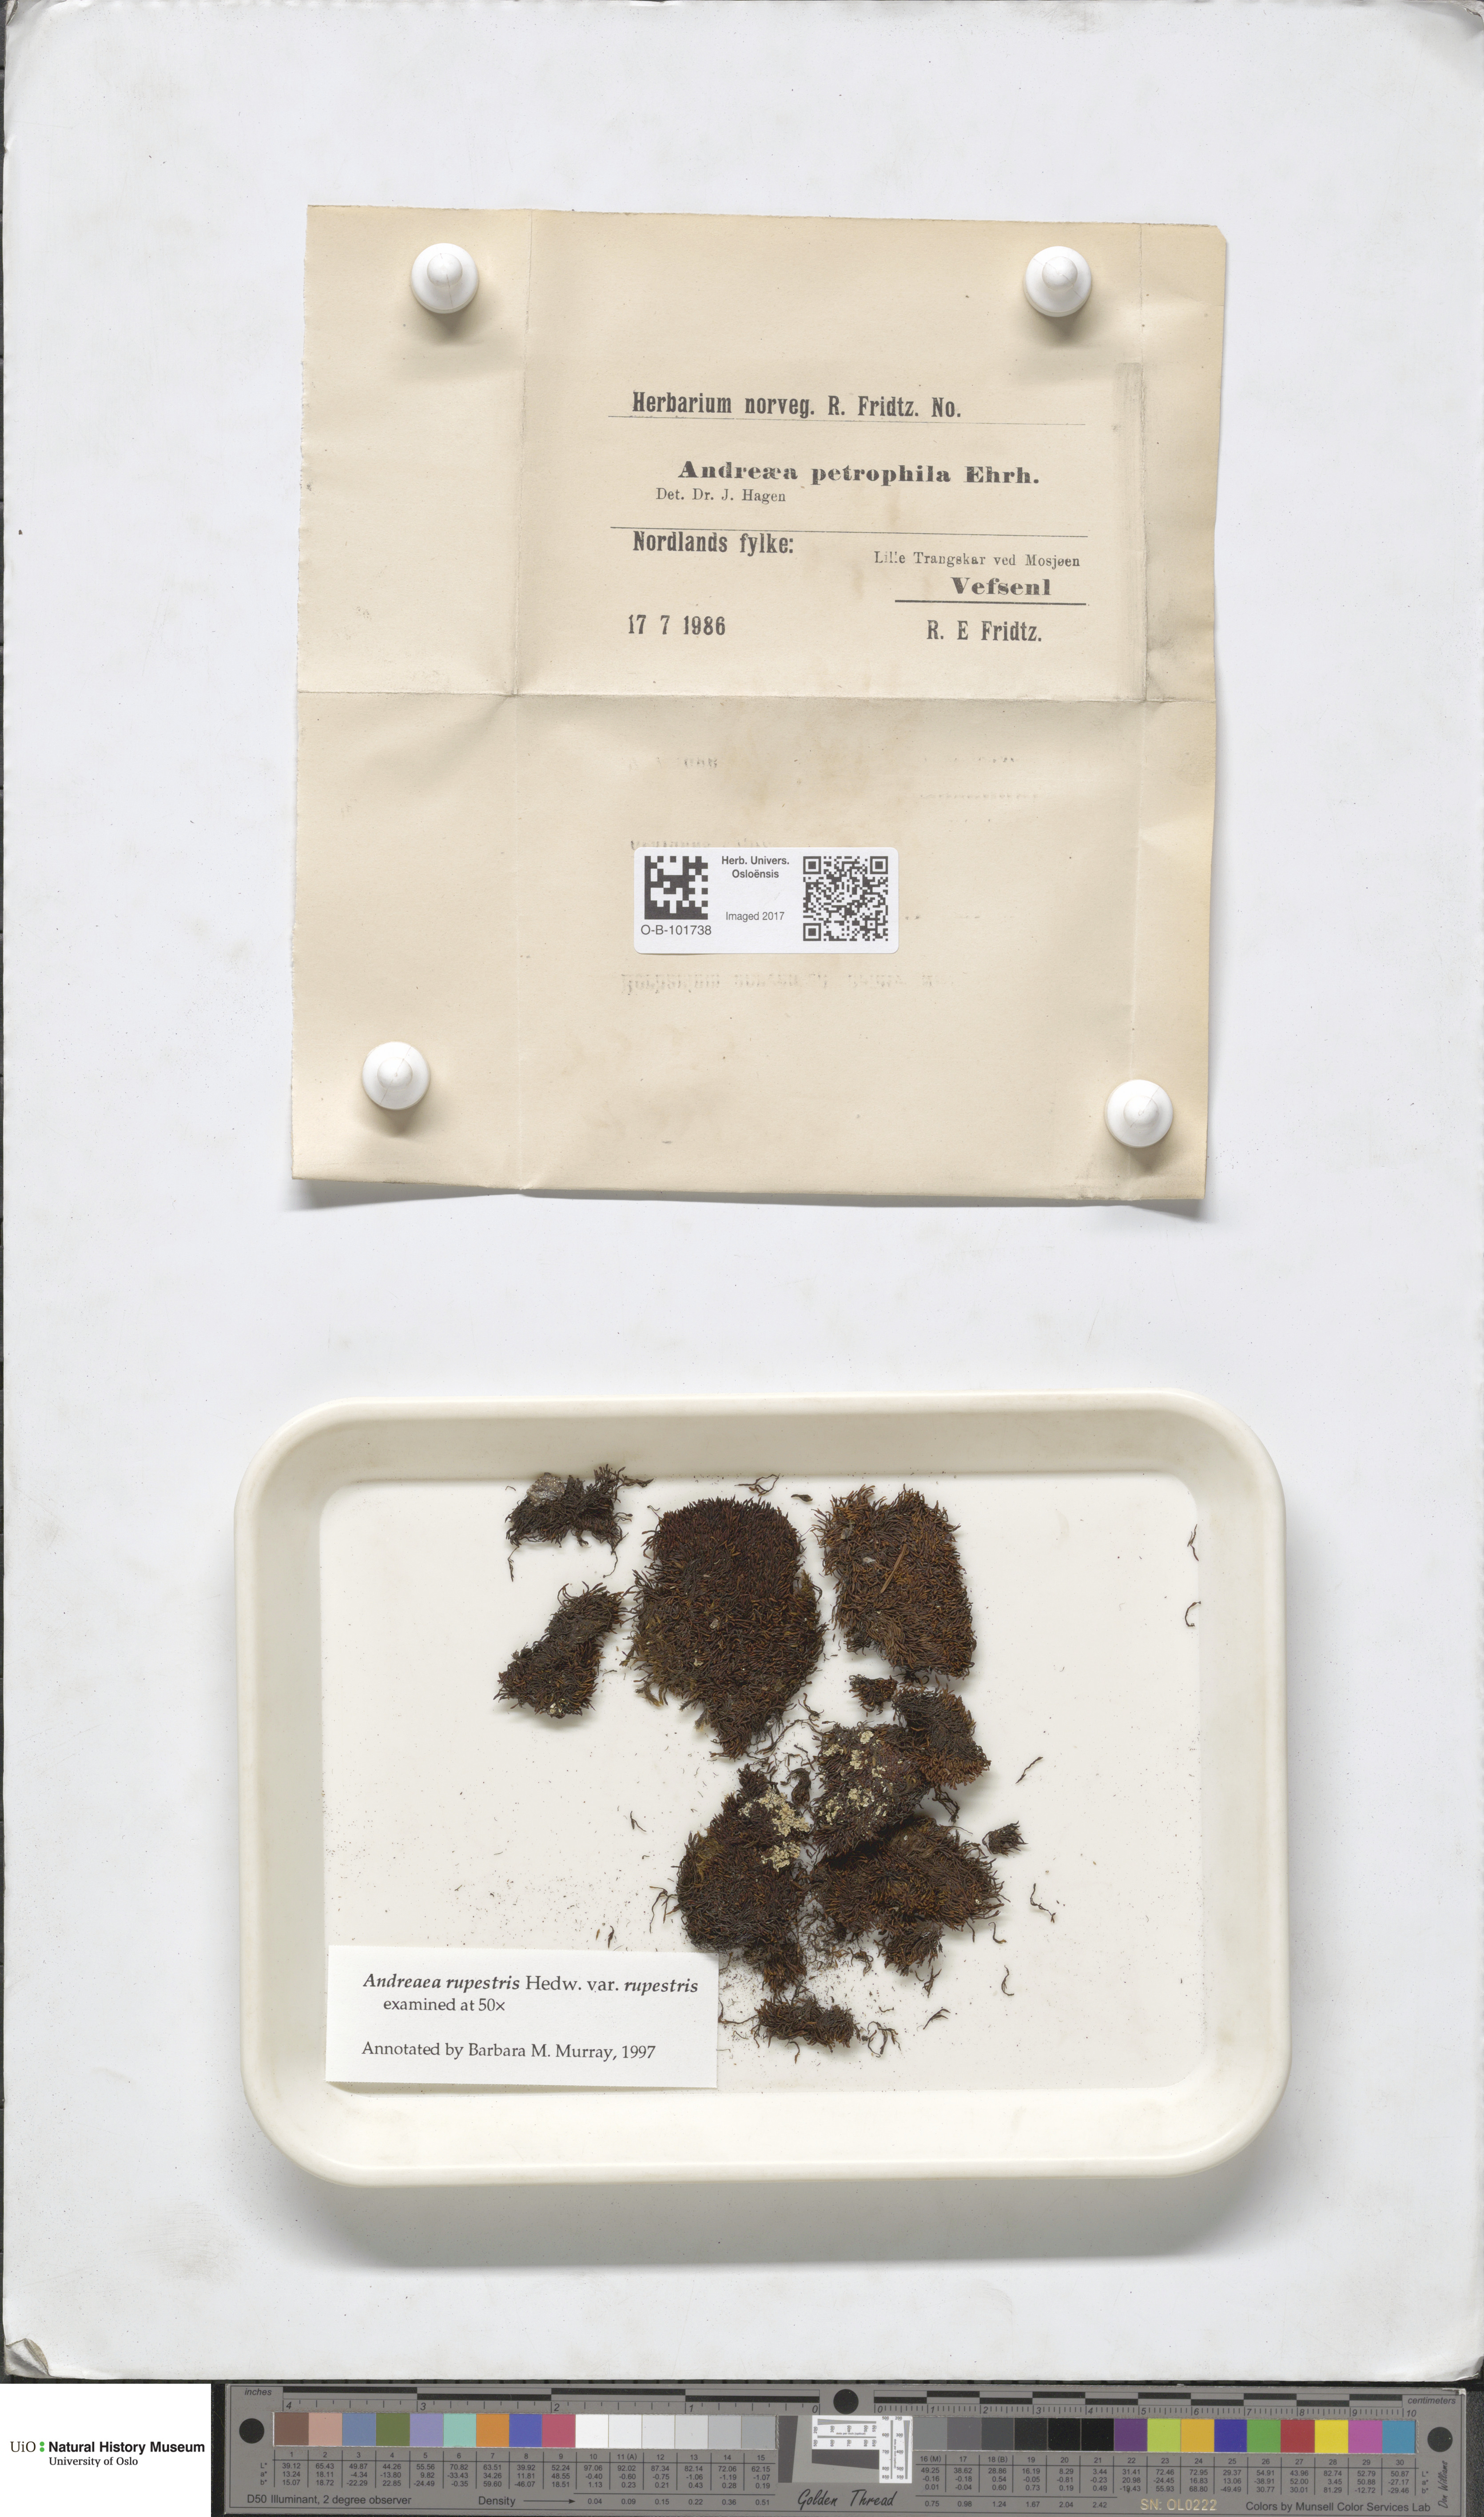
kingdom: Plantae
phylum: Bryophyta
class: Andreaeopsida
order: Andreaeales
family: Andreaeaceae
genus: Andreaea
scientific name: Andreaea rupestris
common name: Black rock moss
